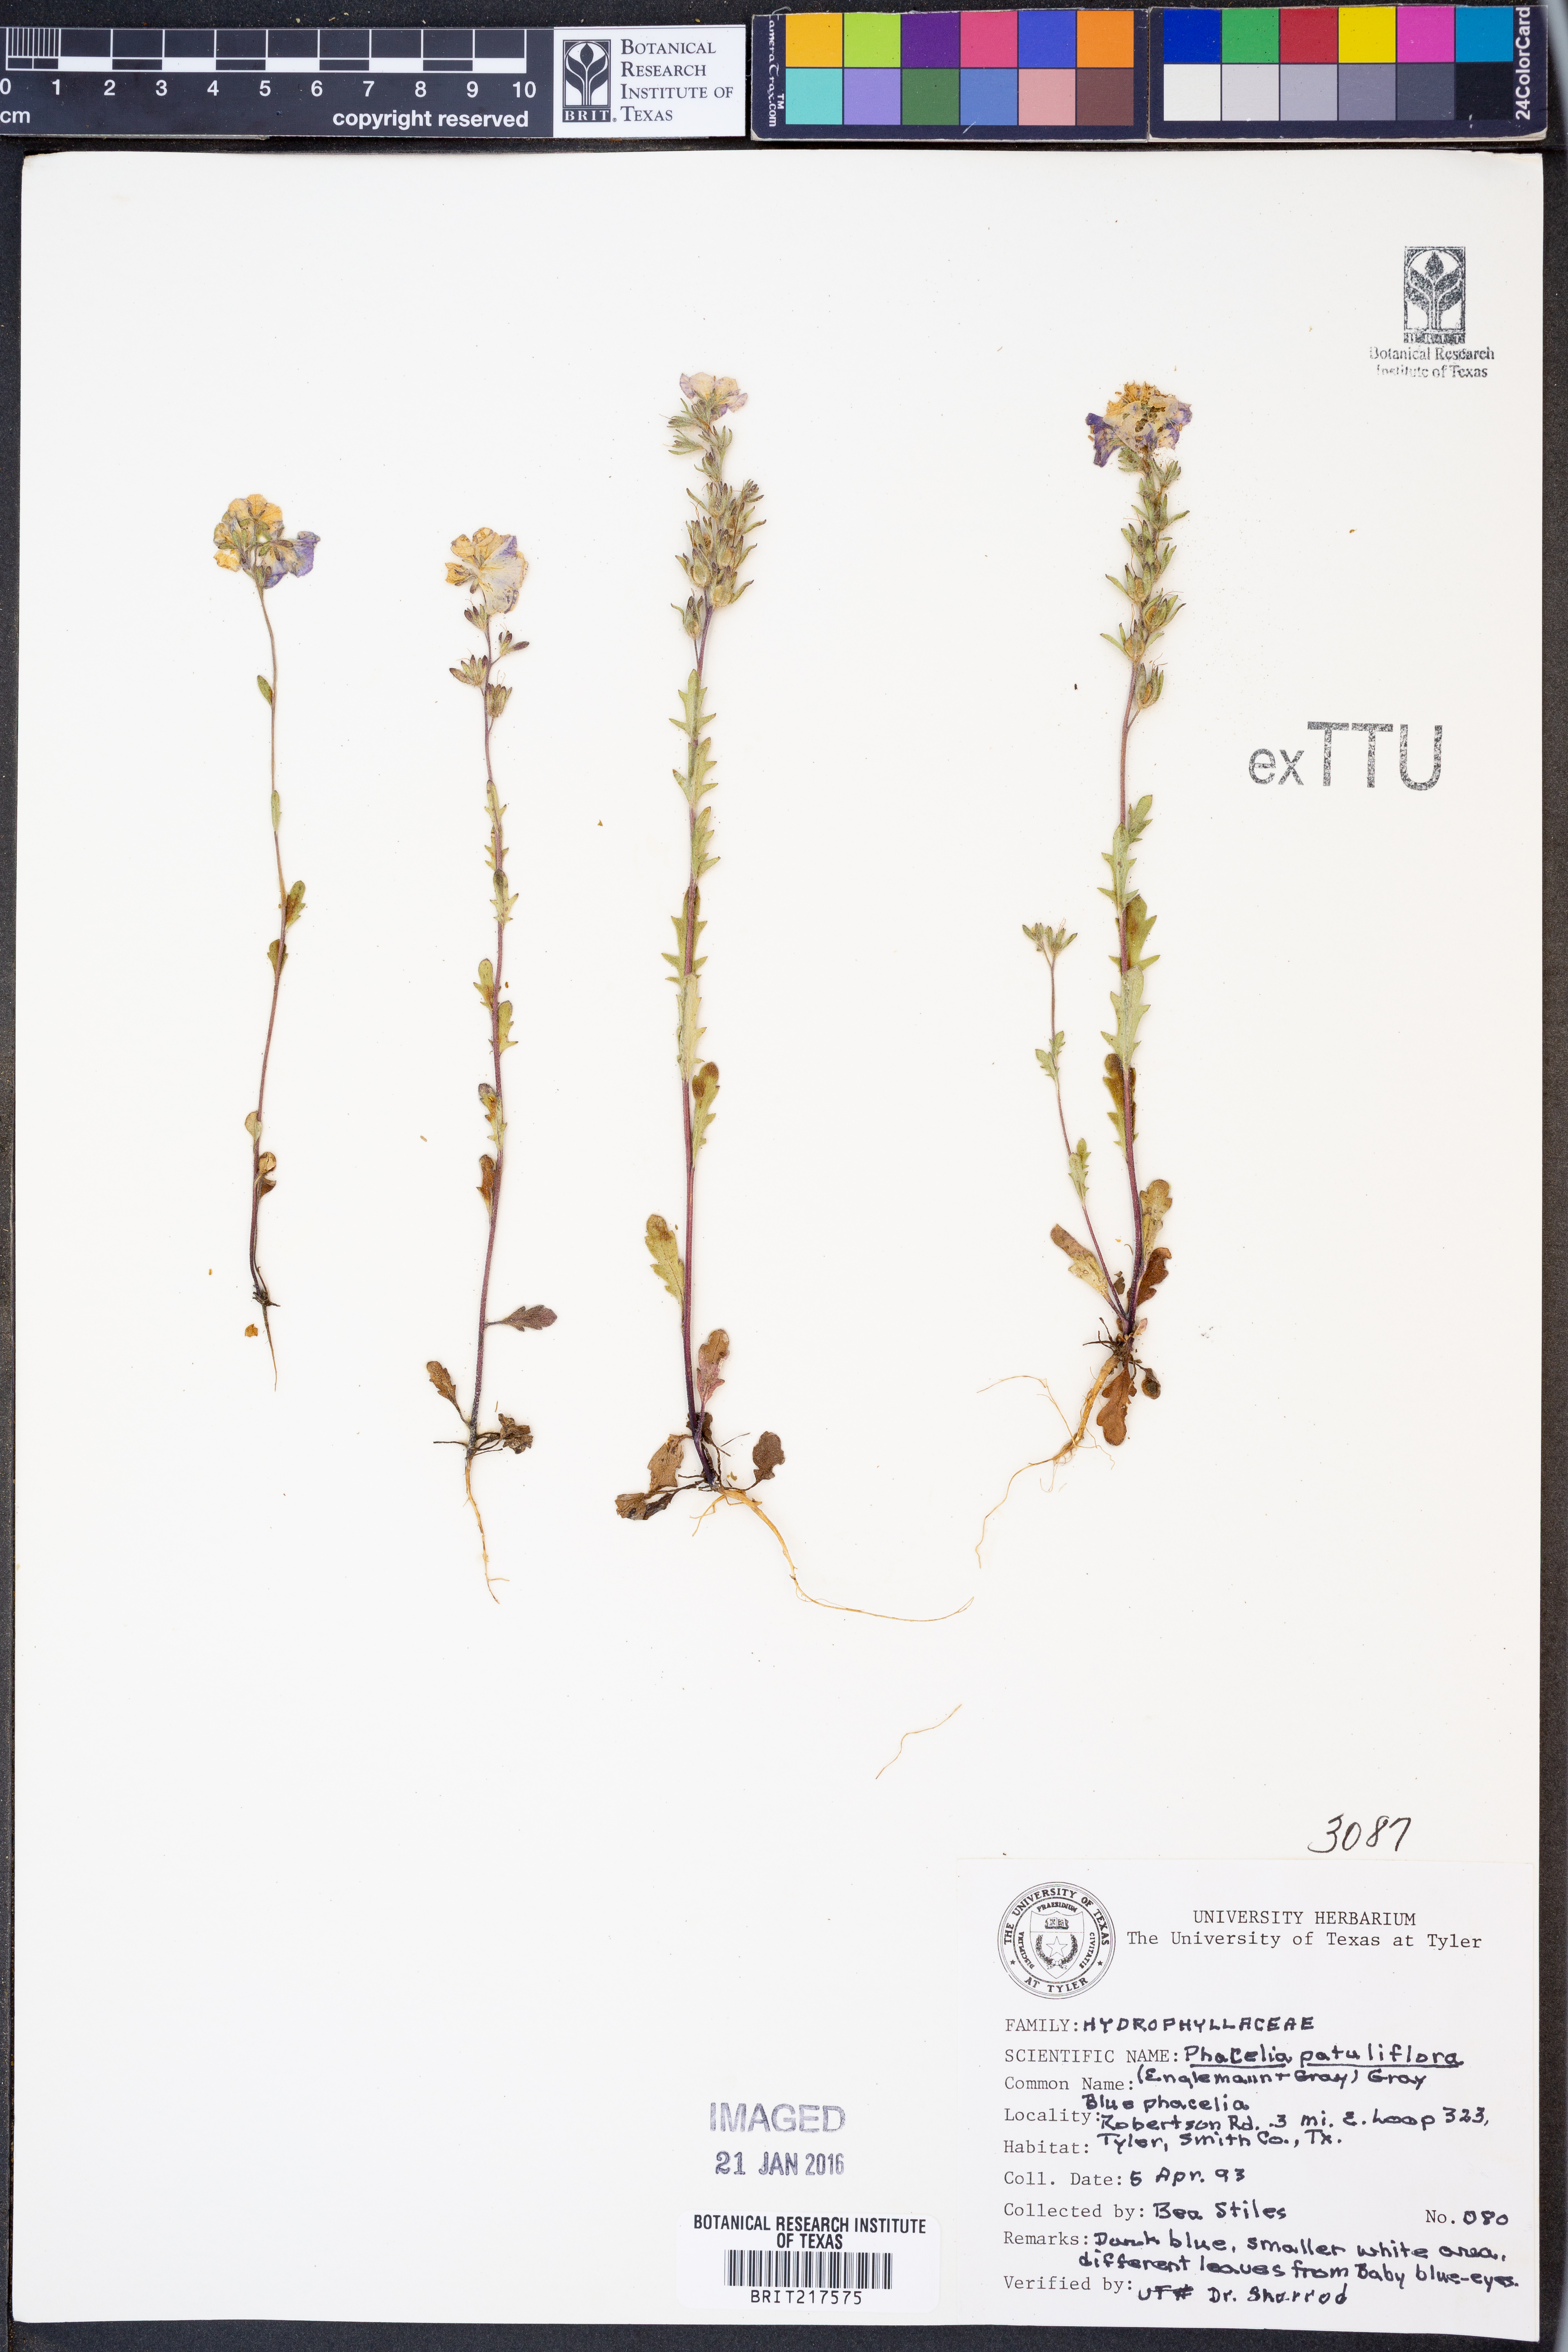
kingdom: Plantae
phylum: Tracheophyta
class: Magnoliopsida
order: Boraginales
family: Hydrophyllaceae
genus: Phacelia
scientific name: Phacelia patuliflora
